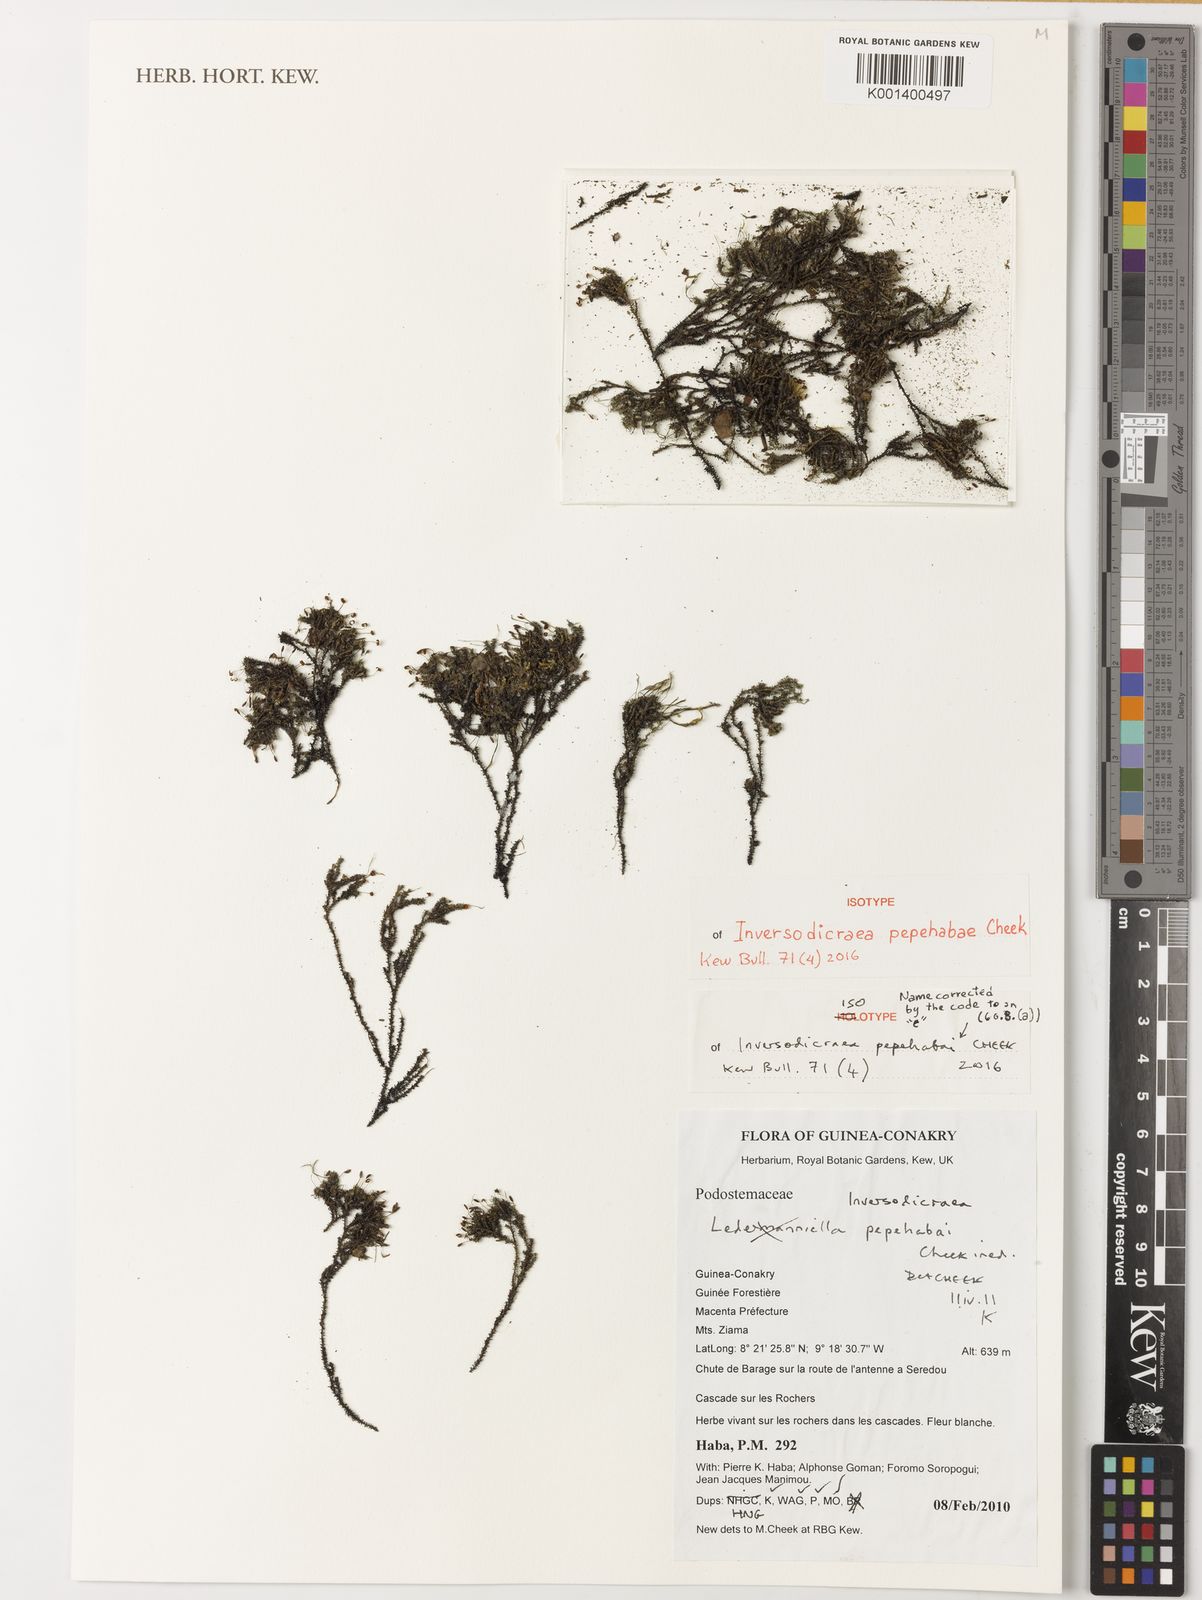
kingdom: Plantae
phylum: Tracheophyta
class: Magnoliopsida
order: Malpighiales
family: Podostemaceae
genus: Inversodicraea
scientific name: Inversodicraea pepehabae
